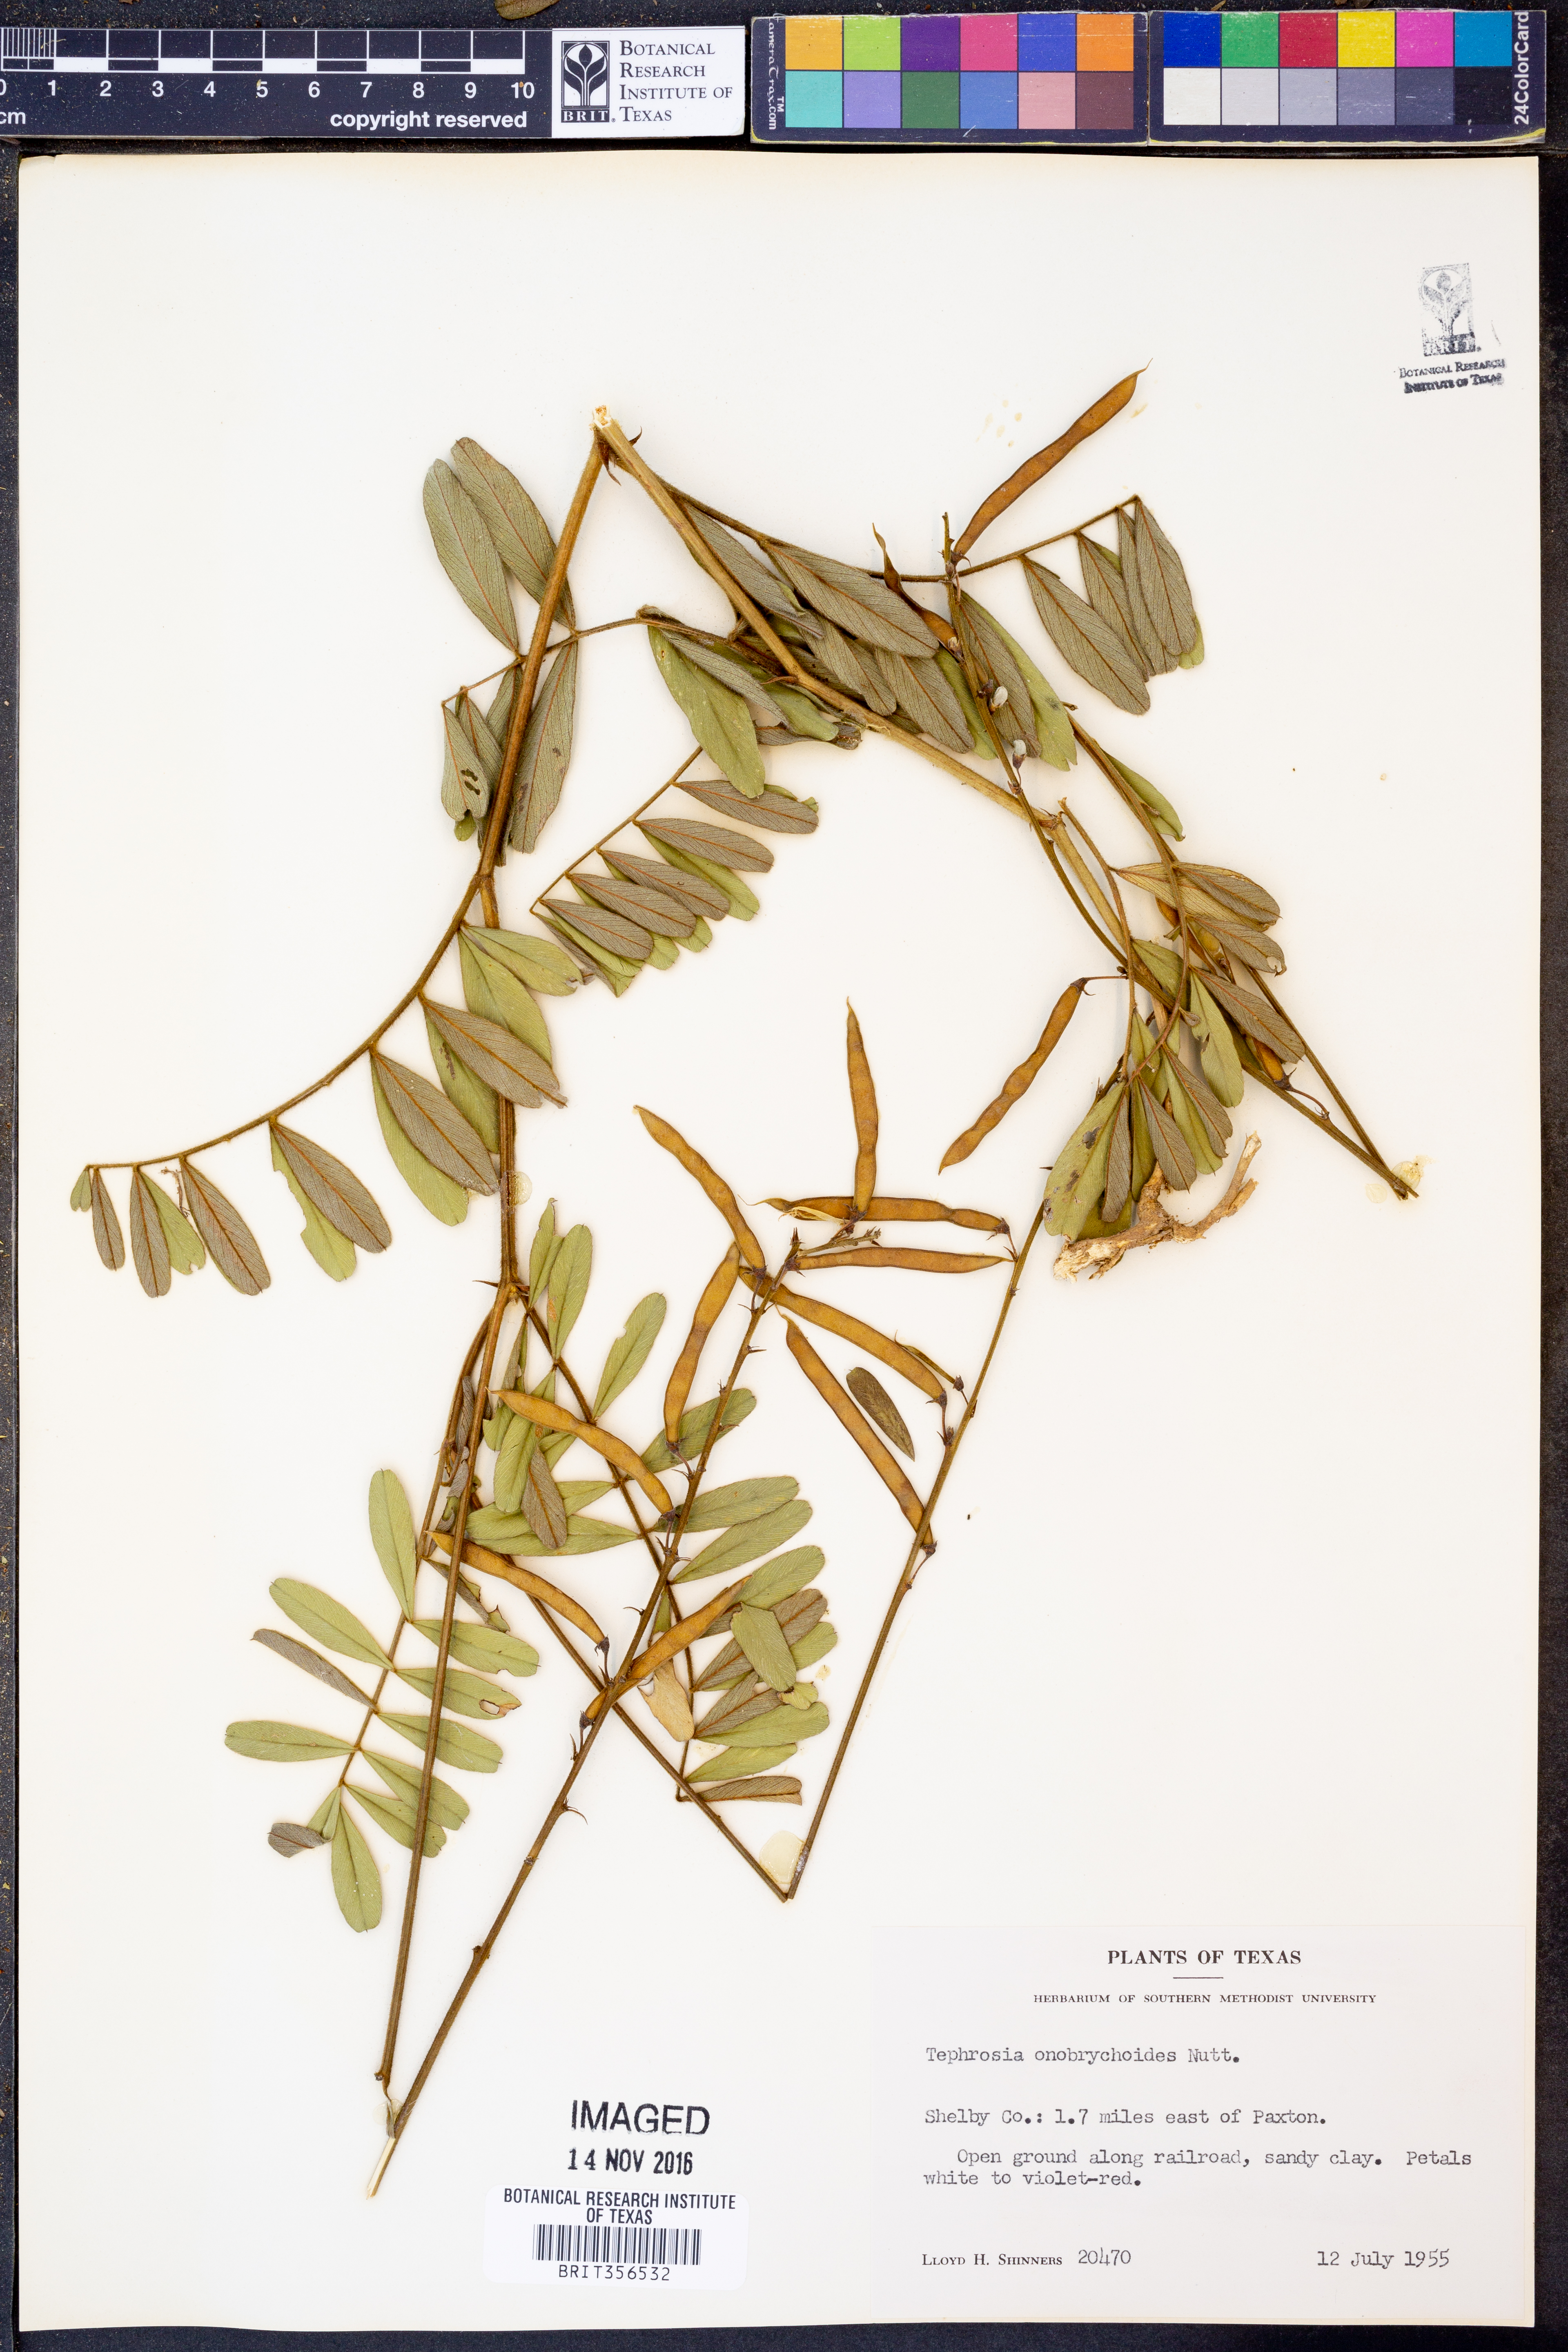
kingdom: Plantae
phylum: Tracheophyta
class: Magnoliopsida
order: Fabales
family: Fabaceae
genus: Tephrosia
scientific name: Tephrosia onobrychoides
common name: Multi-bloom hoary-pea
